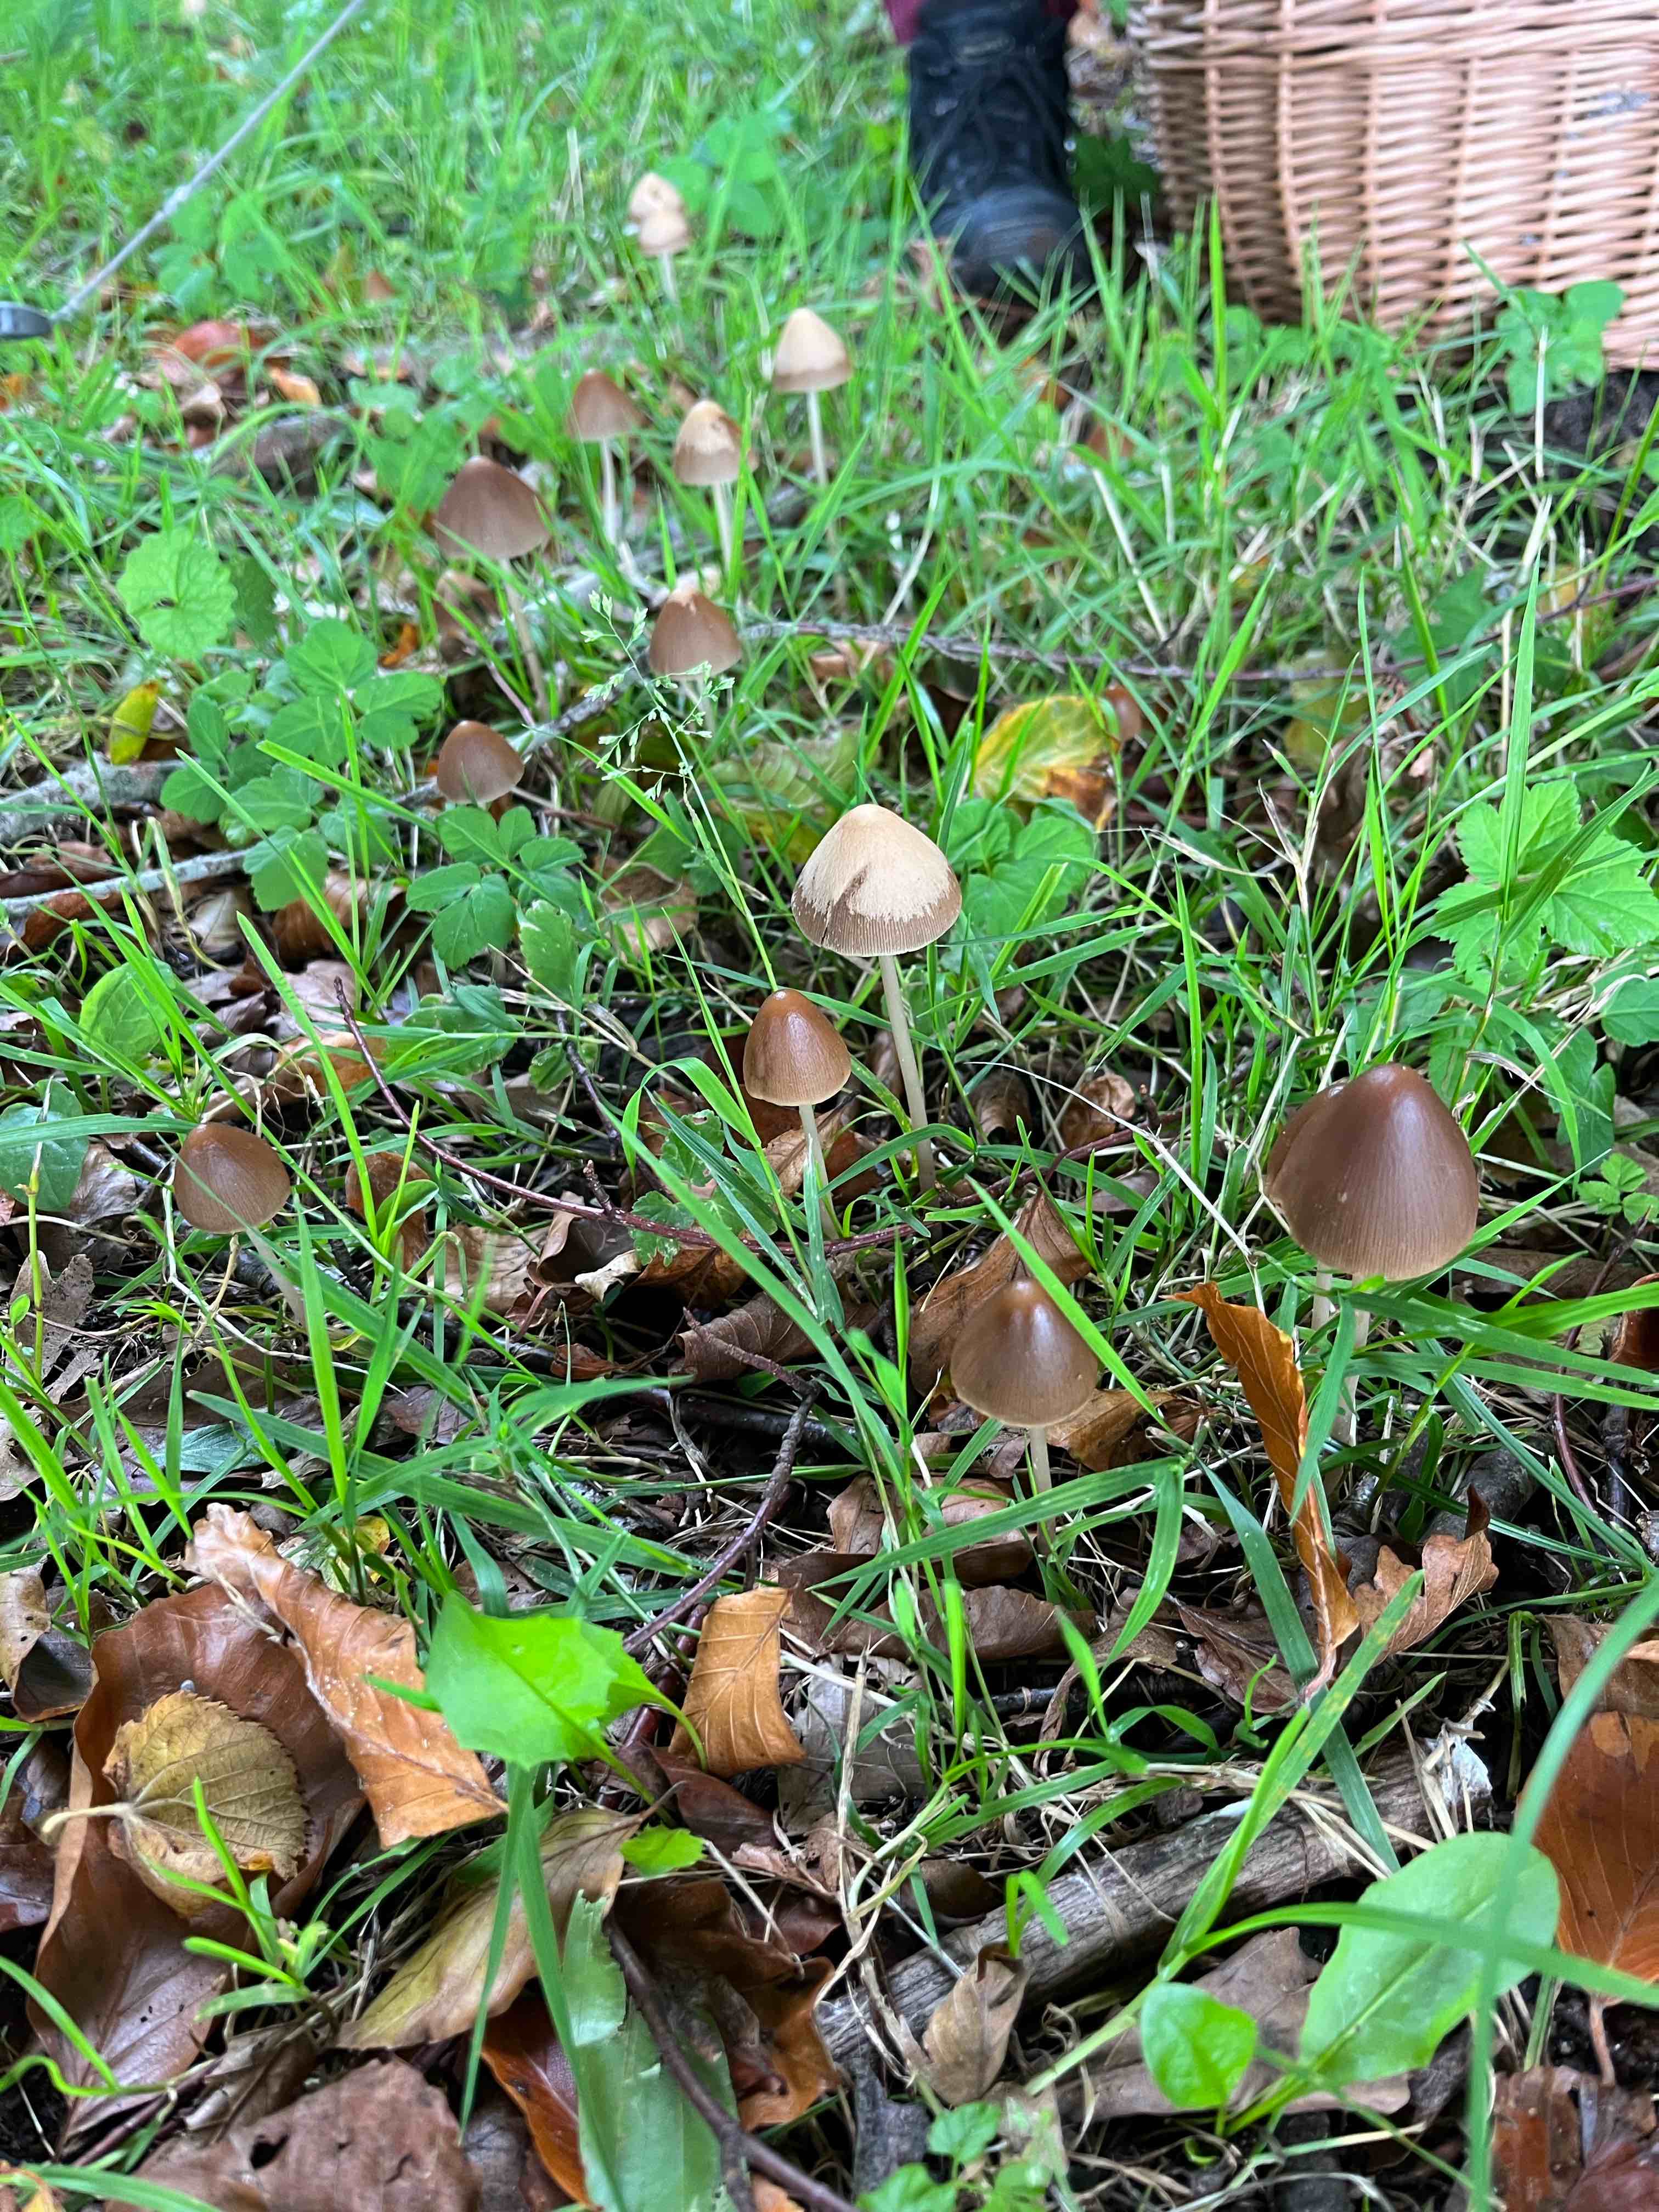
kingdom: Fungi
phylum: Basidiomycota
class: Agaricomycetes
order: Agaricales
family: Psathyrellaceae
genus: Parasola
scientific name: Parasola conopilea
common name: kegle-hjulhat
